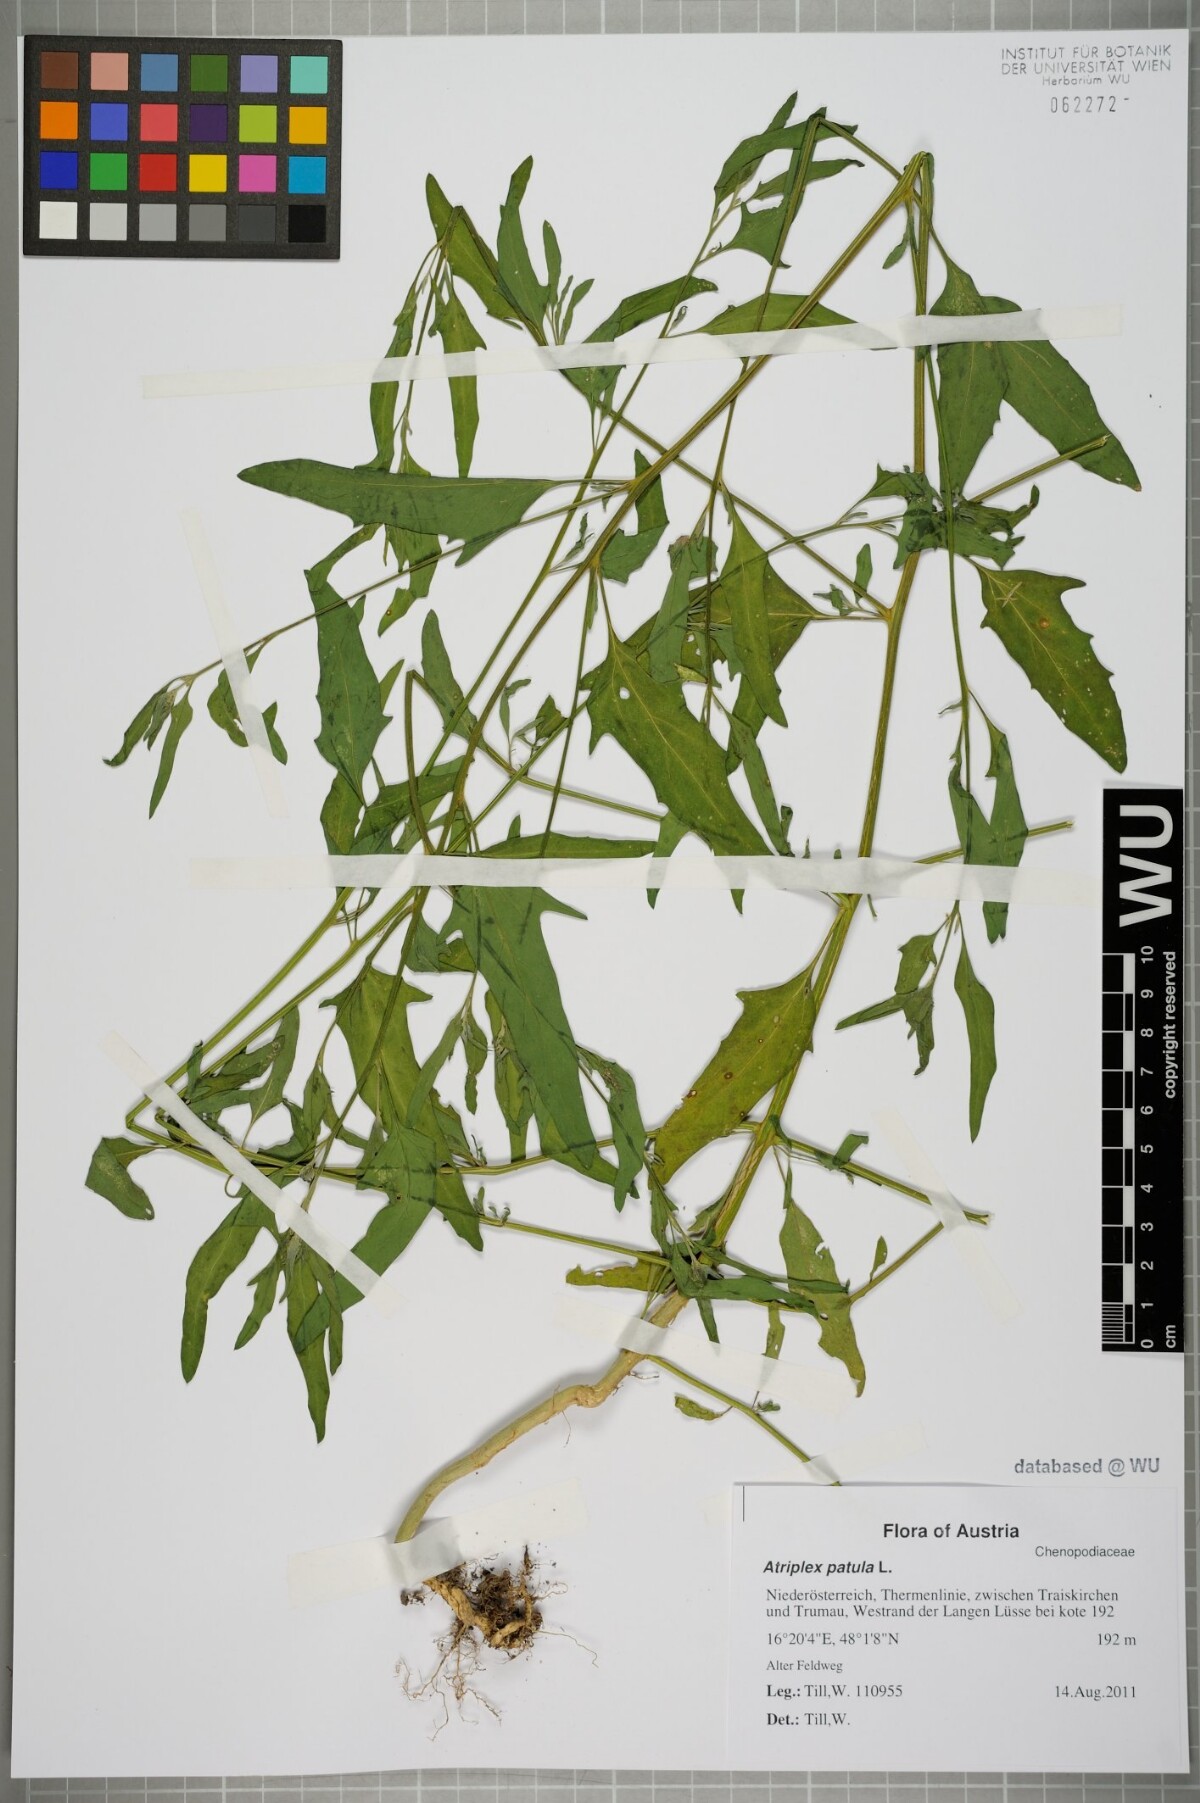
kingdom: Plantae
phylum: Tracheophyta
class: Magnoliopsida
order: Caryophyllales
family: Amaranthaceae
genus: Atriplex
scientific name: Atriplex patula
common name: Common orache
